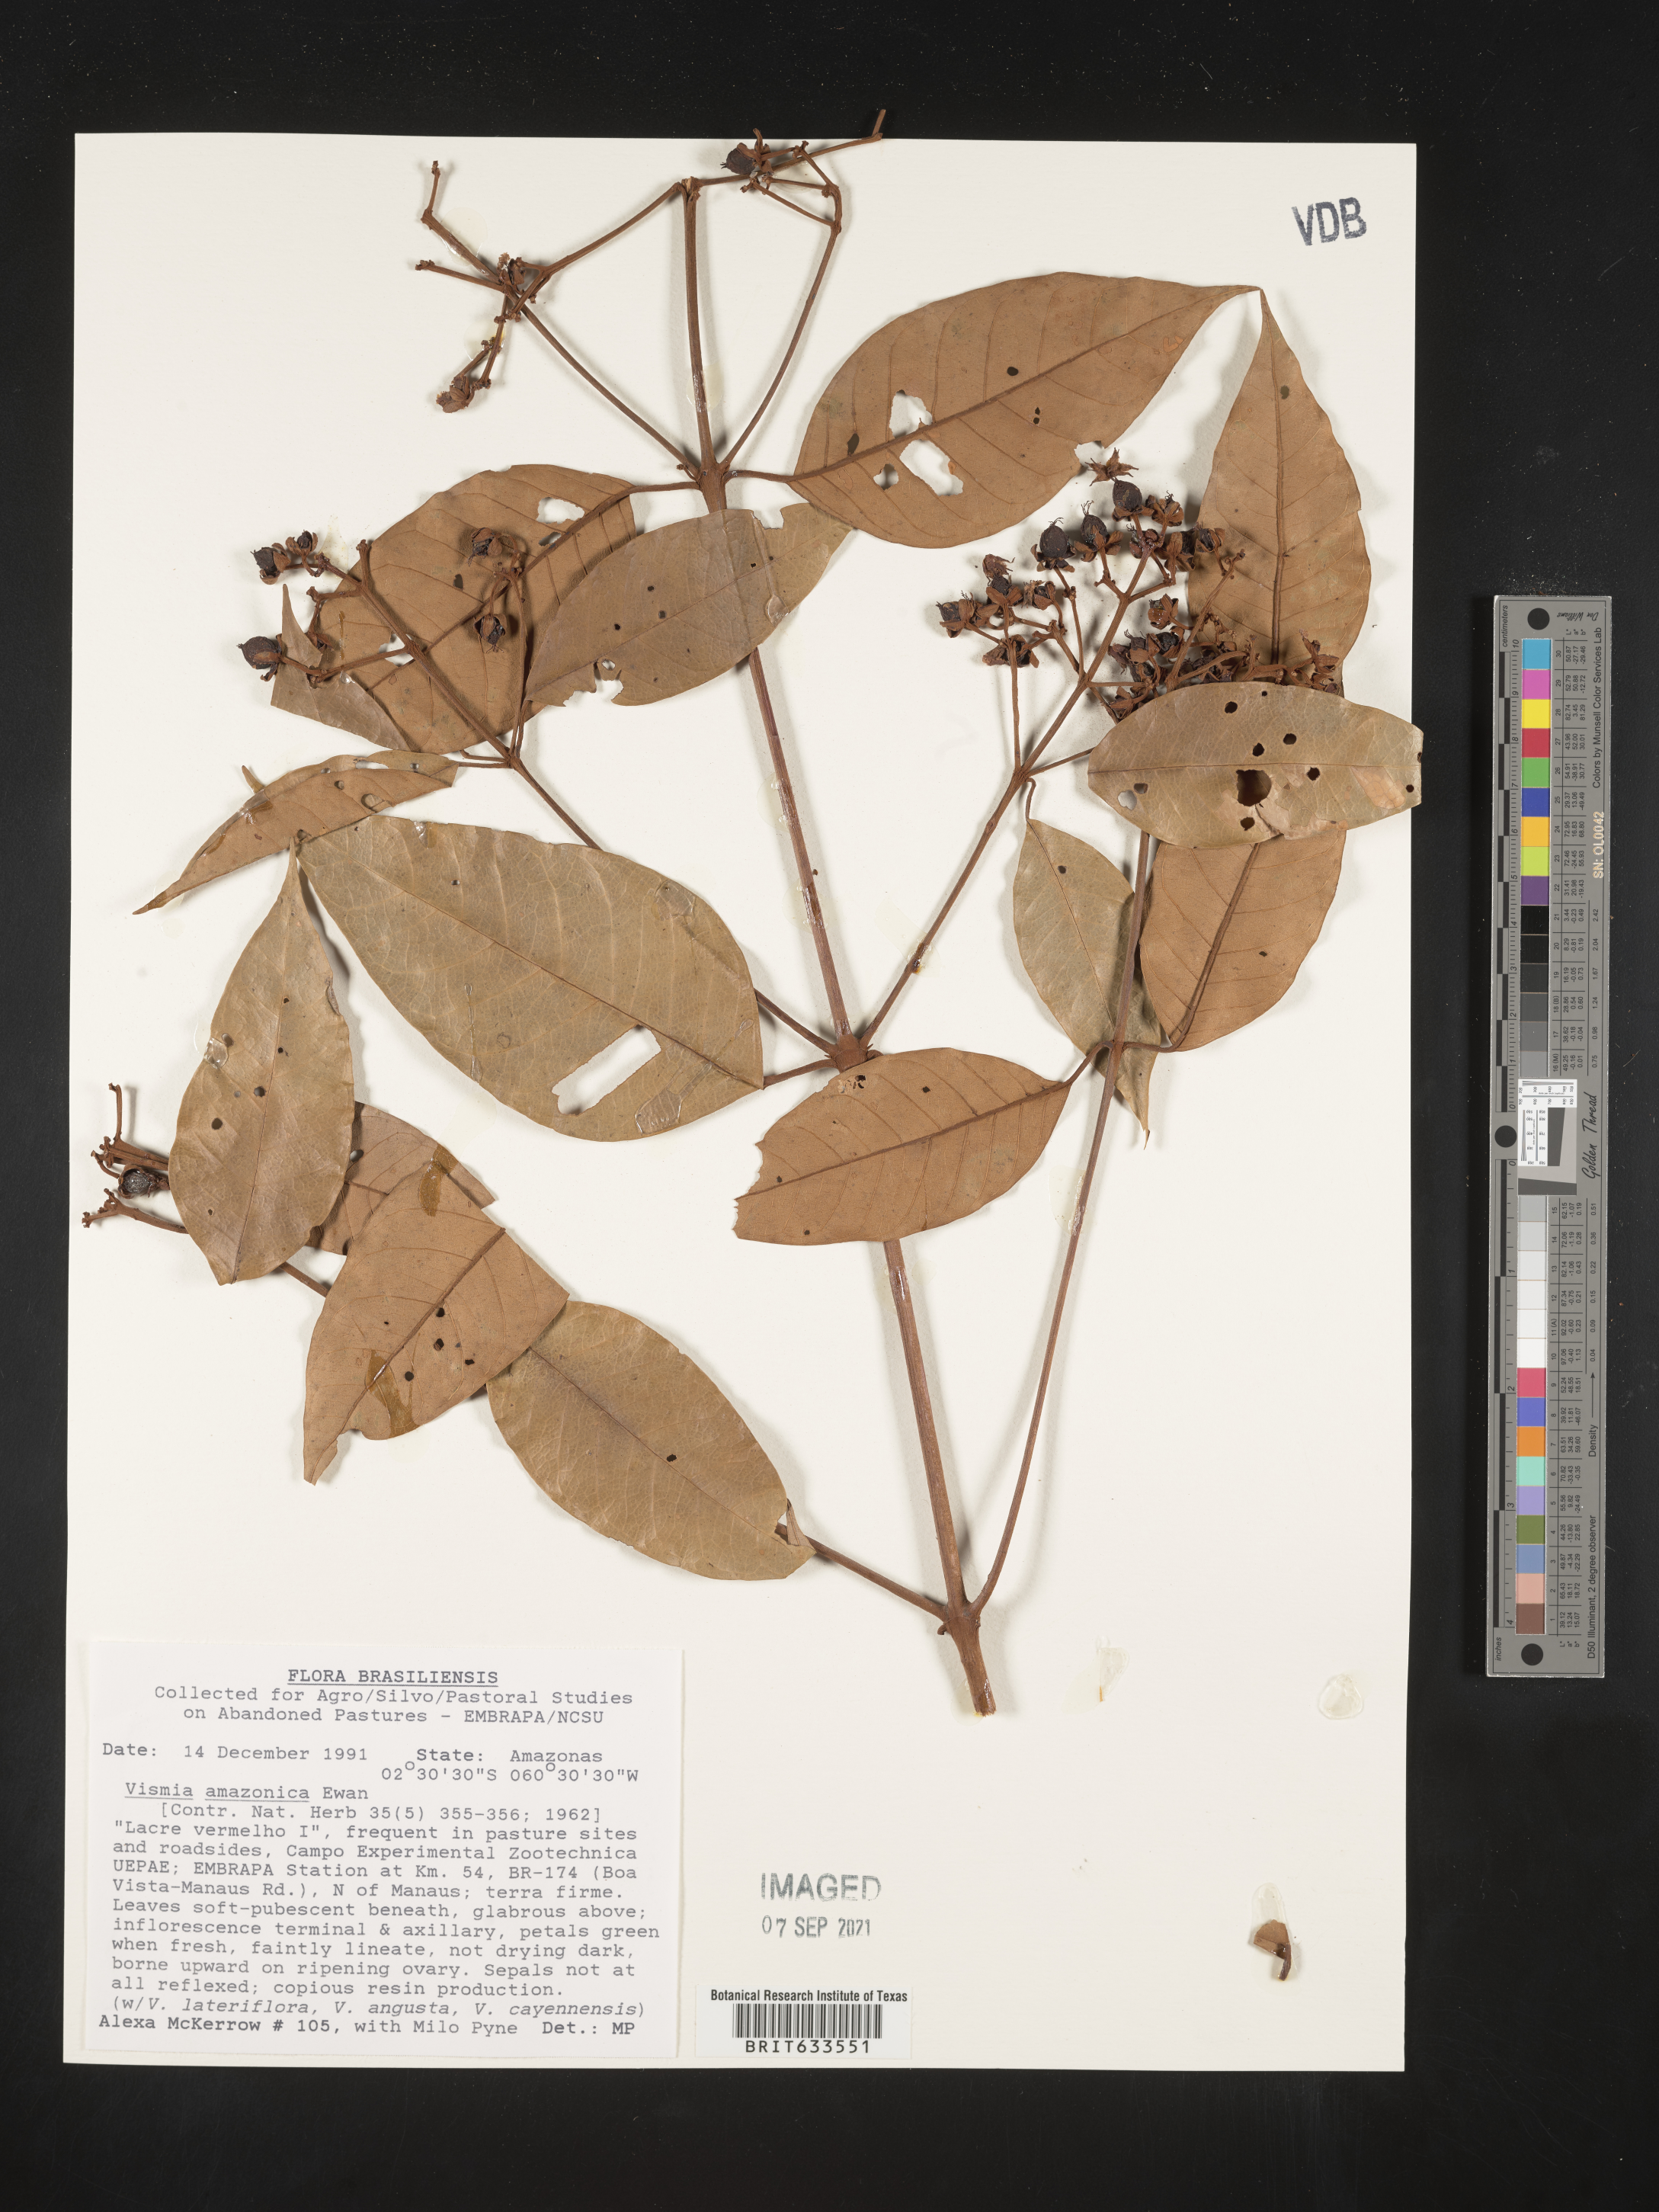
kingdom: Plantae
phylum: Tracheophyta
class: Magnoliopsida
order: Malpighiales
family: Hypericaceae
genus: Vismia
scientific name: Vismia
